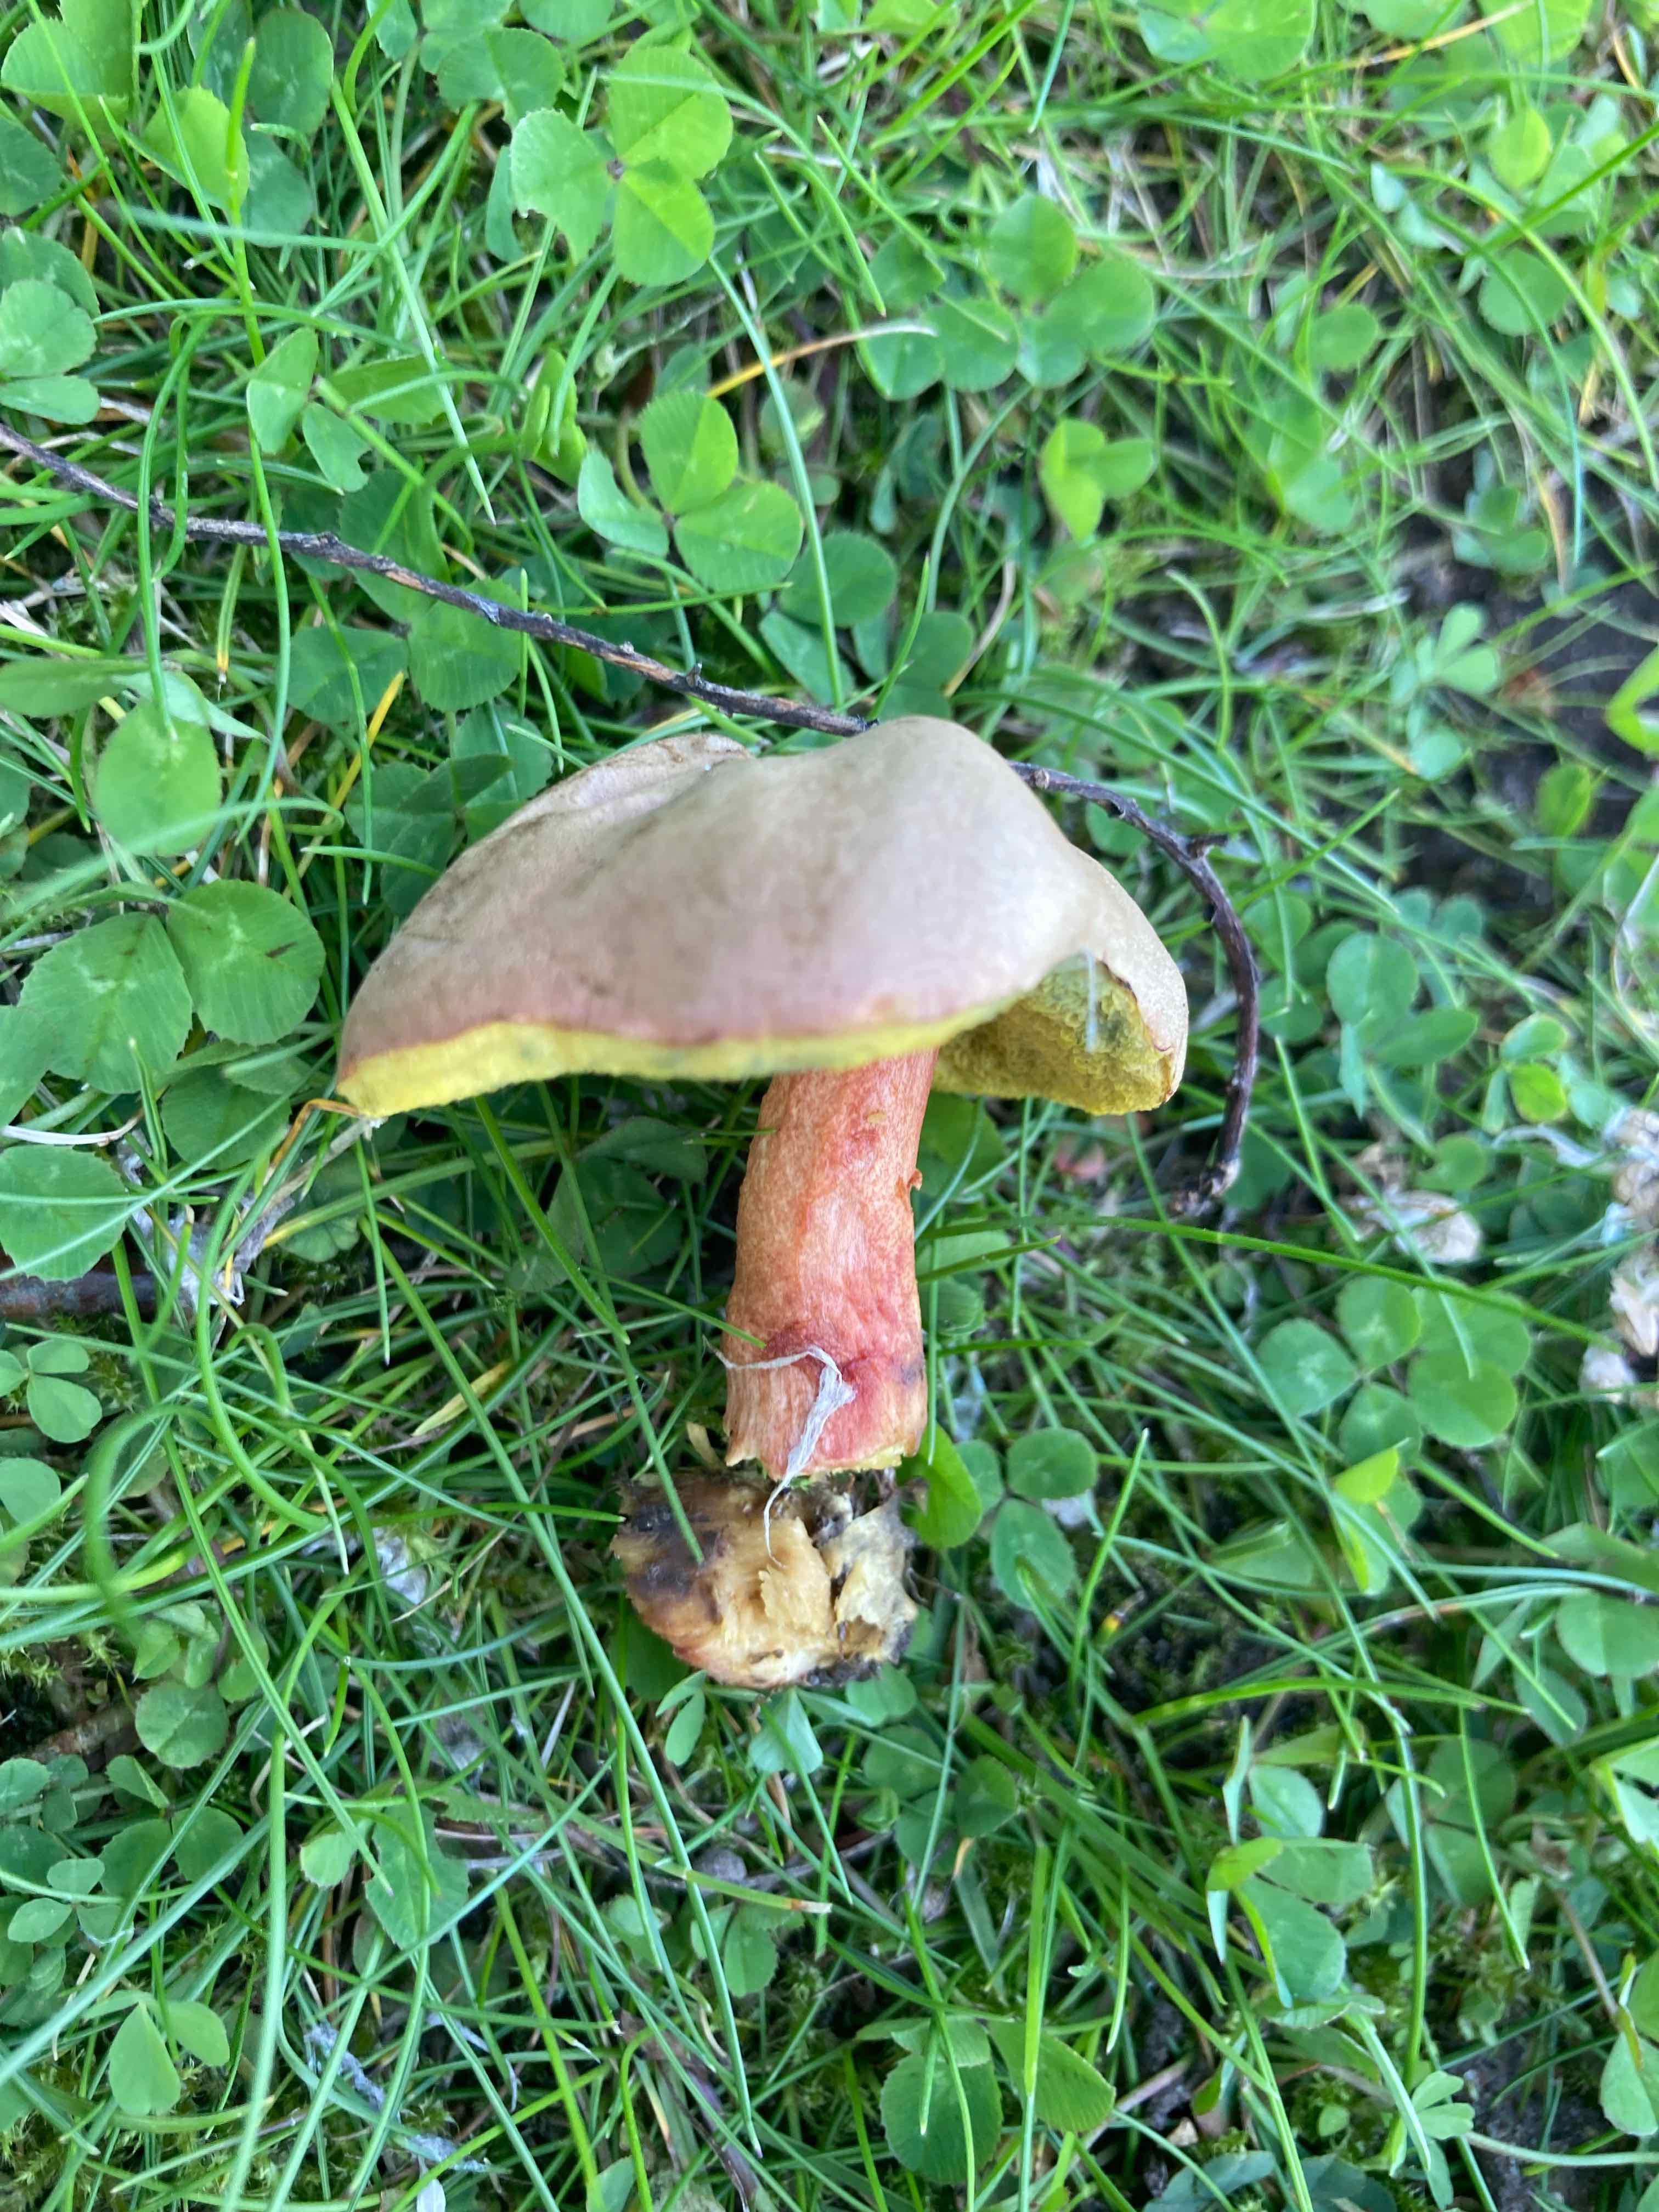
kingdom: Fungi
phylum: Basidiomycota
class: Agaricomycetes
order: Boletales
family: Boletaceae
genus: Hortiboletus
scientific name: Hortiboletus bubalinus
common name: aurora-rørhat
